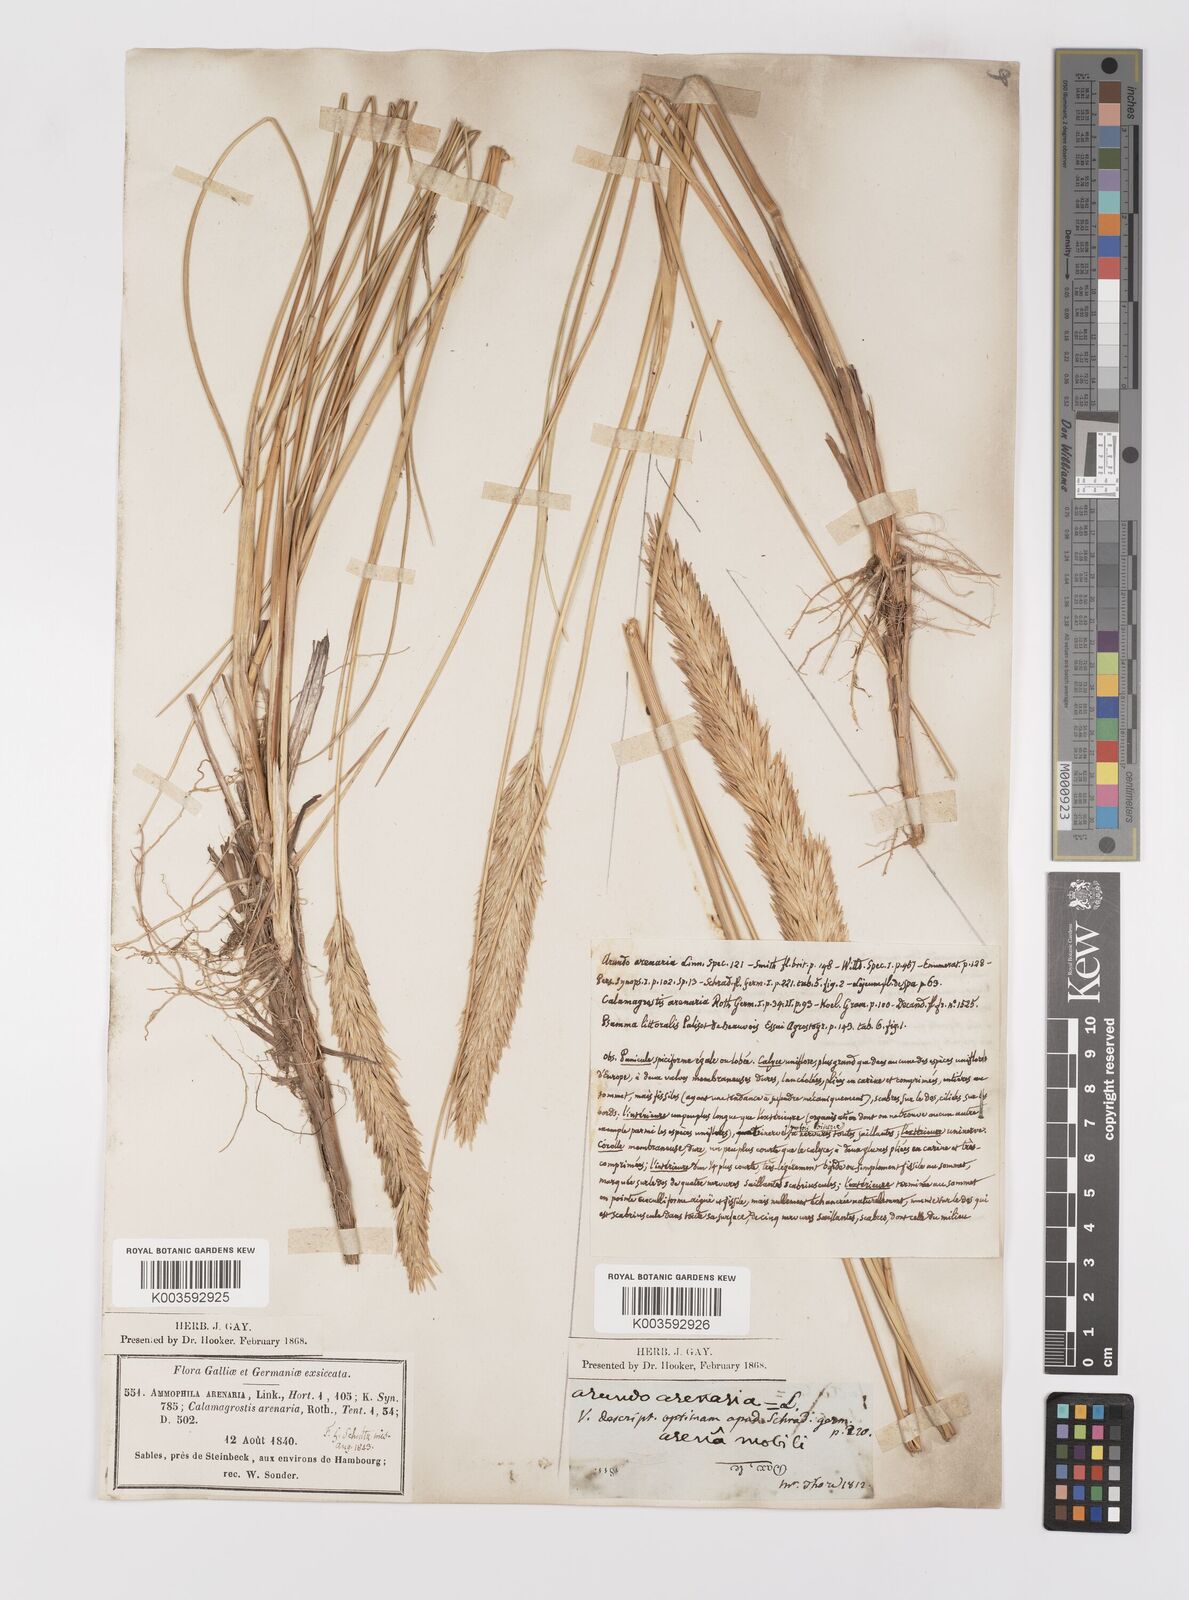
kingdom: Plantae
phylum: Tracheophyta
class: Liliopsida
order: Poales
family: Poaceae
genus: Calamagrostis
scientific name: Calamagrostis arenaria
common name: European beachgrass
